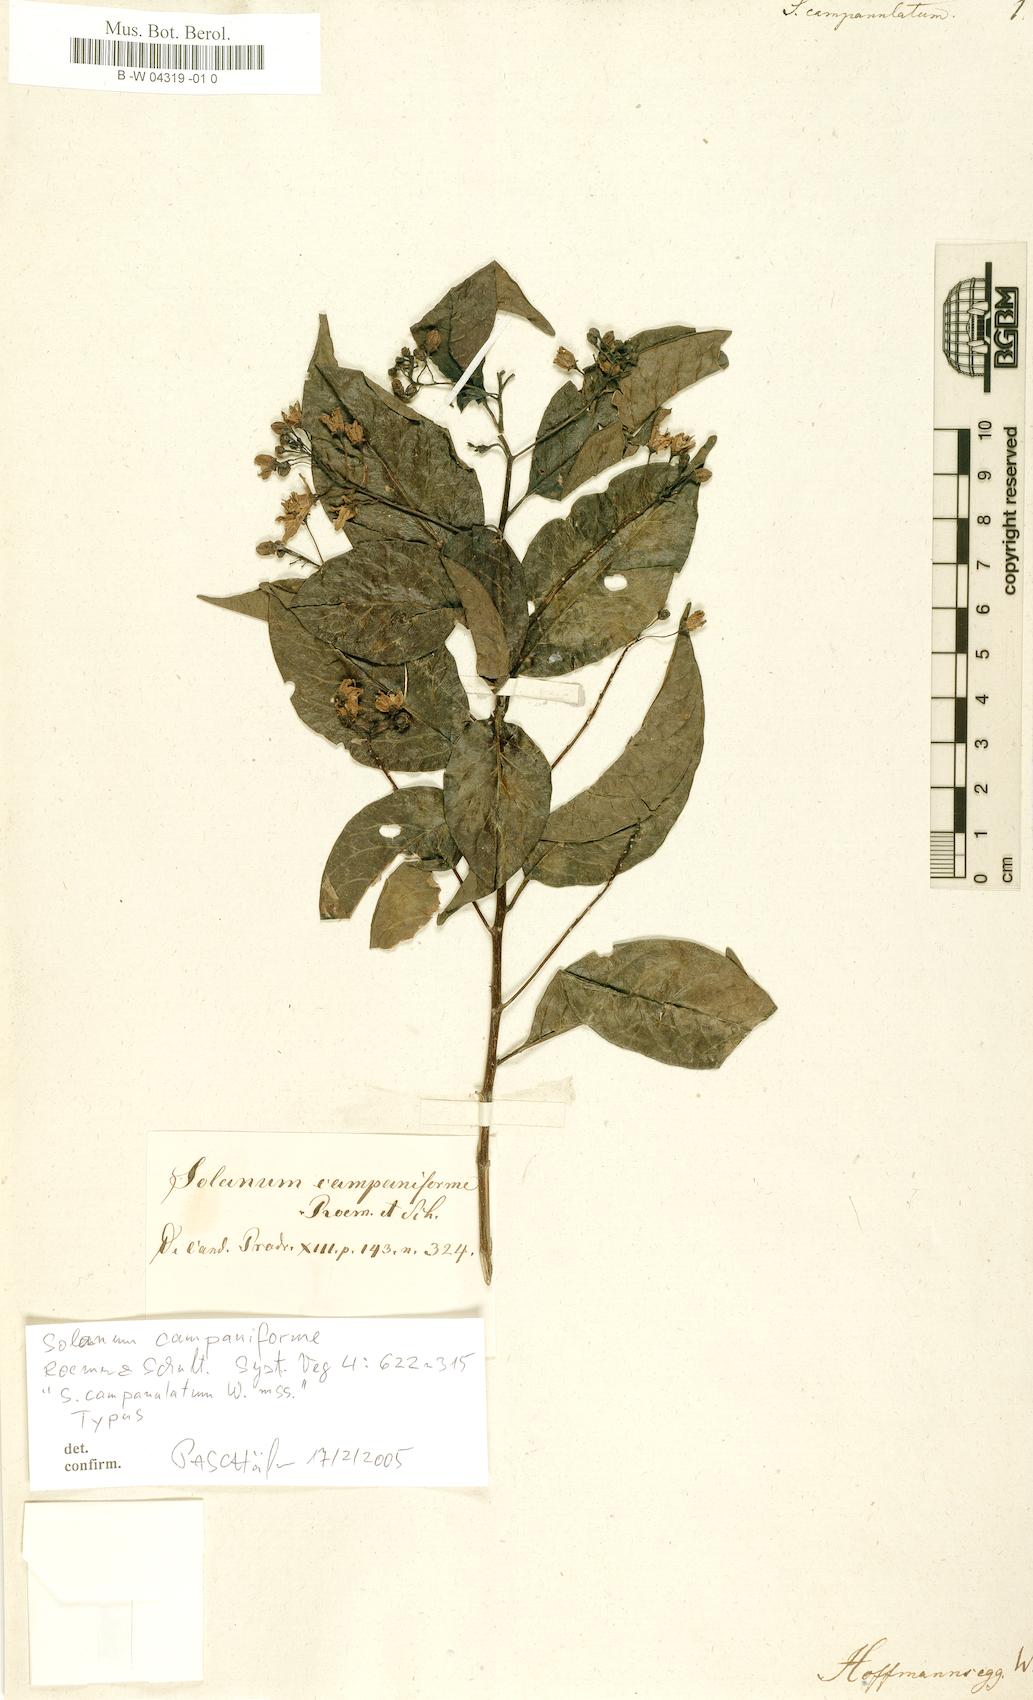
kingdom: Plantae
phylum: Tracheophyta
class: Magnoliopsida
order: Solanales
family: Solanaceae
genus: Solanum
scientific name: Solanum campanulatum
